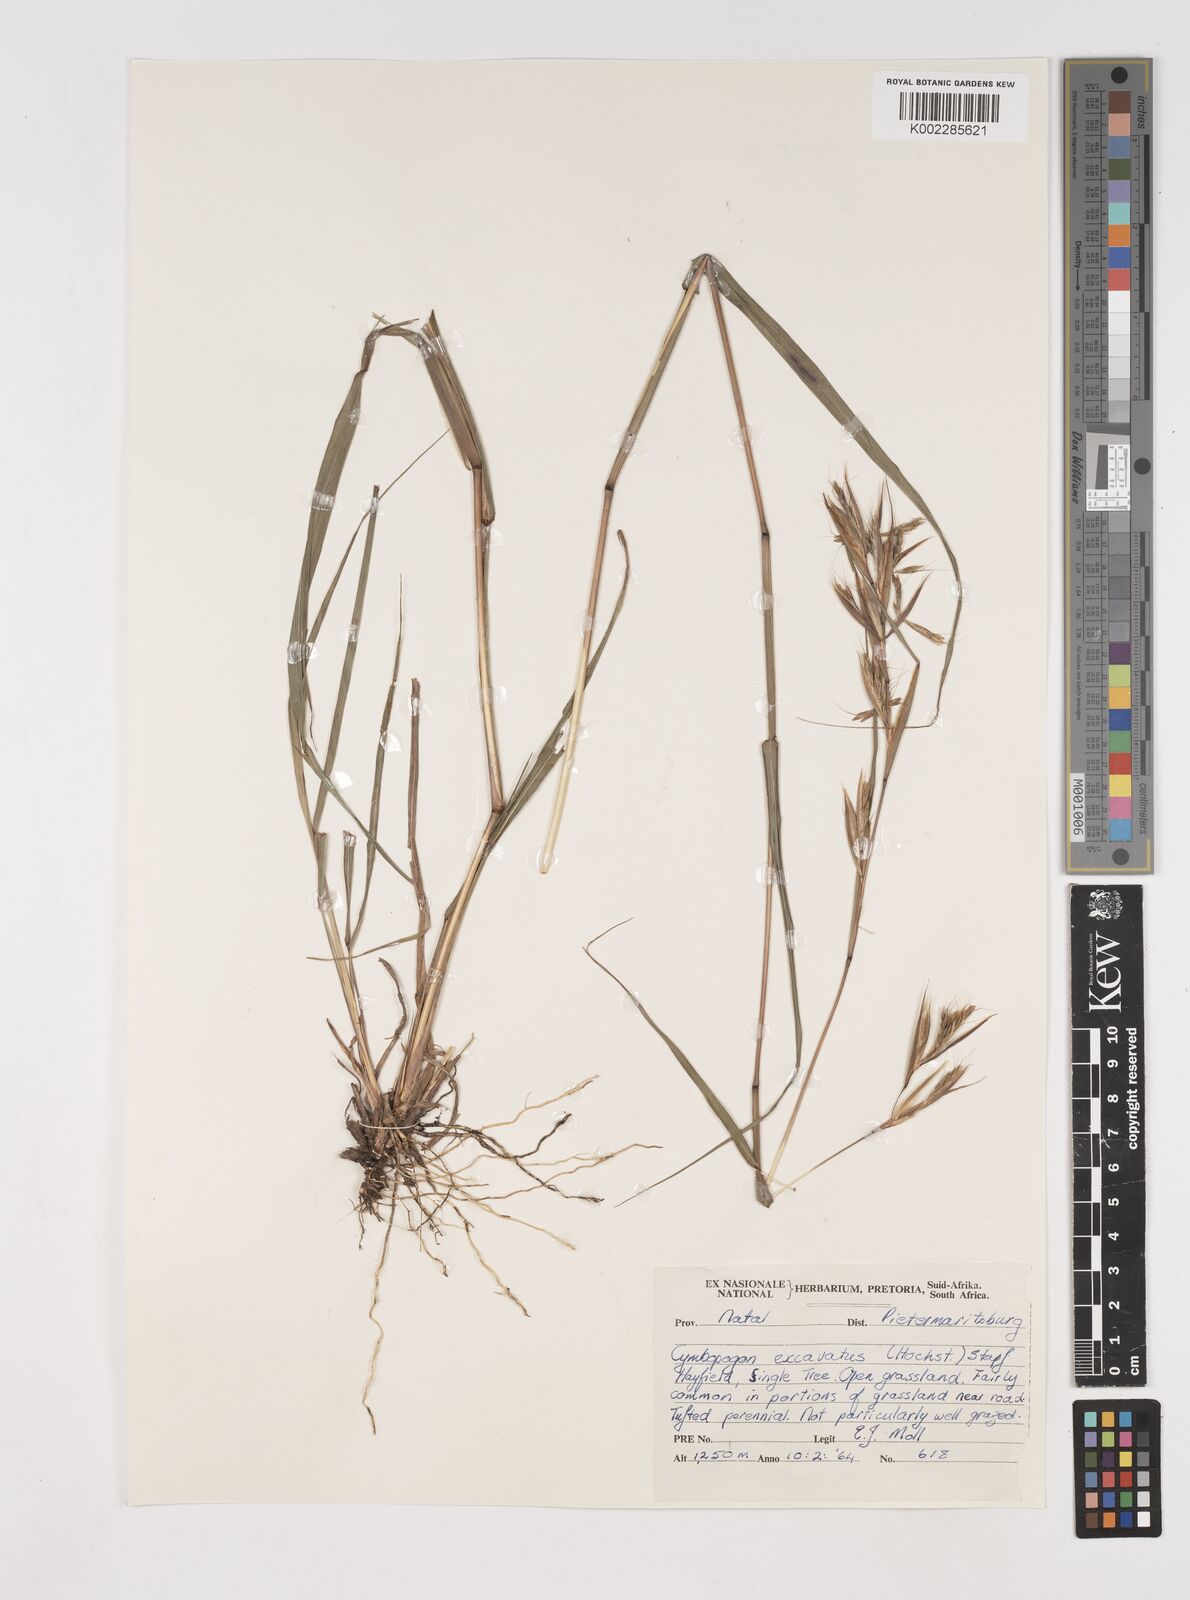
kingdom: Plantae
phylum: Tracheophyta
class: Liliopsida
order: Poales
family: Poaceae
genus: Cymbopogon
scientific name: Cymbopogon caesius
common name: Kachi grass
